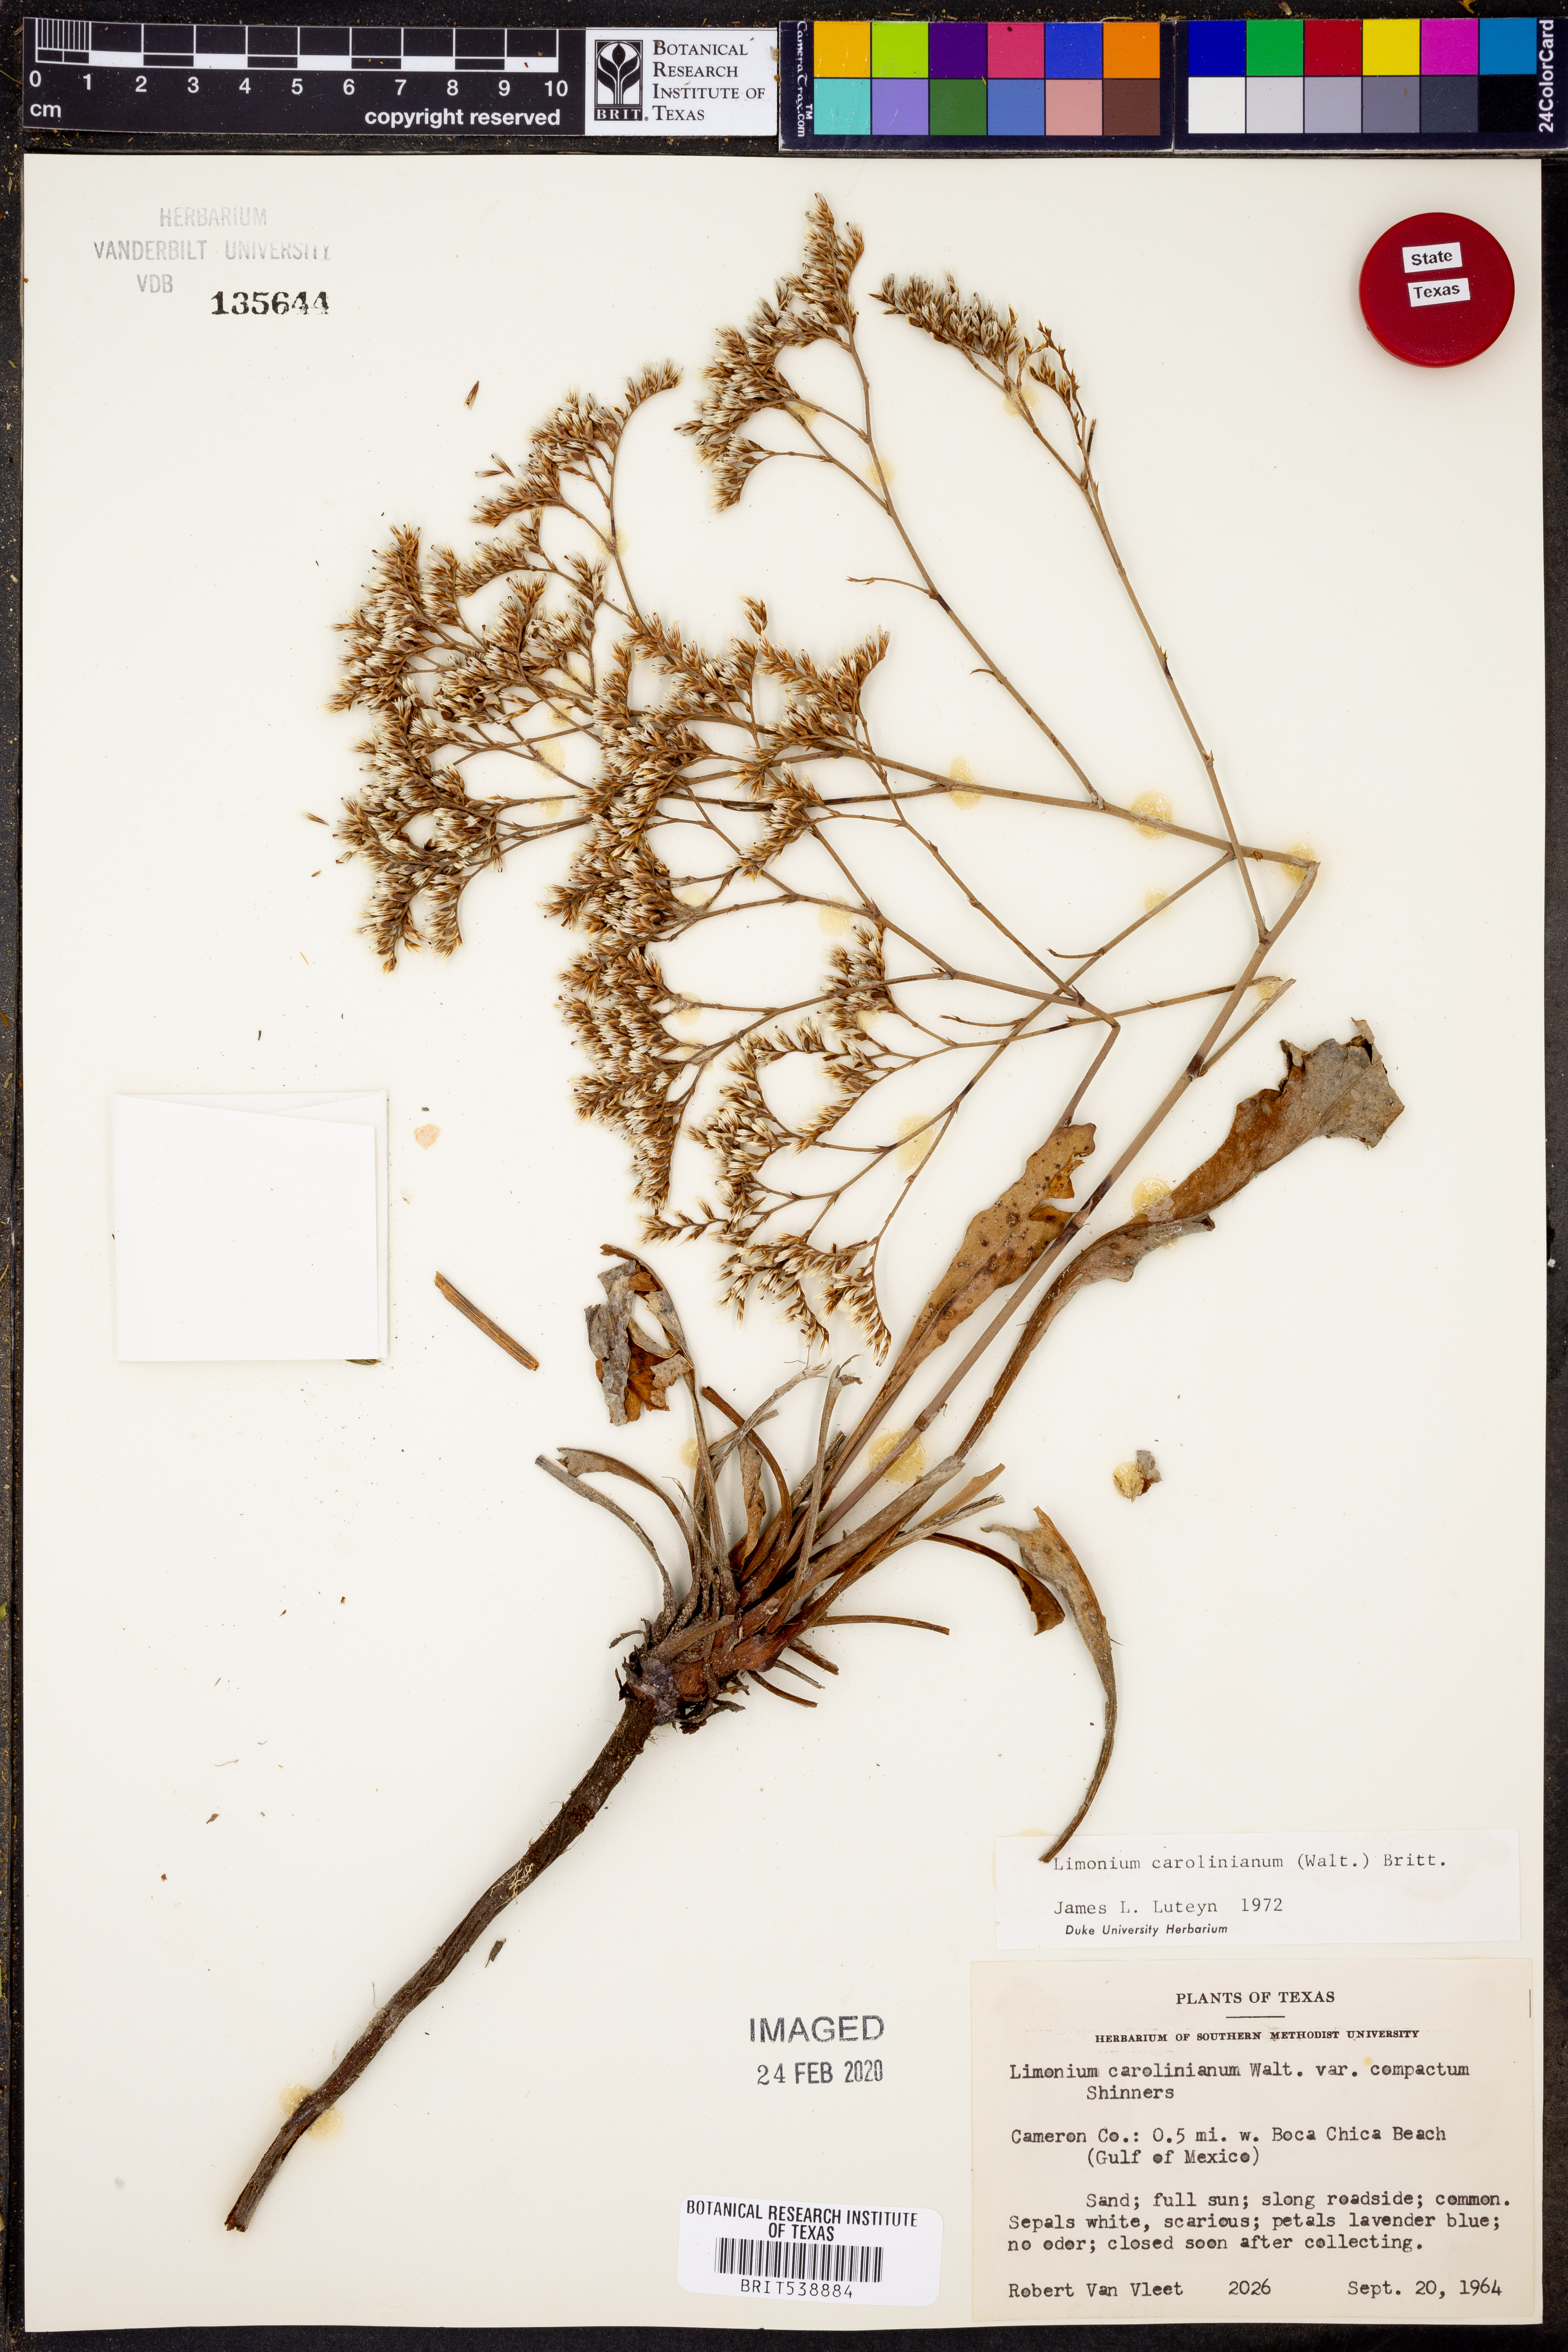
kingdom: Plantae
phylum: Tracheophyta
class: Magnoliopsida
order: Caryophyllales
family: Plumbaginaceae
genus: Limonium
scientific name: Limonium carolinianum
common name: Carolina sea lavender
